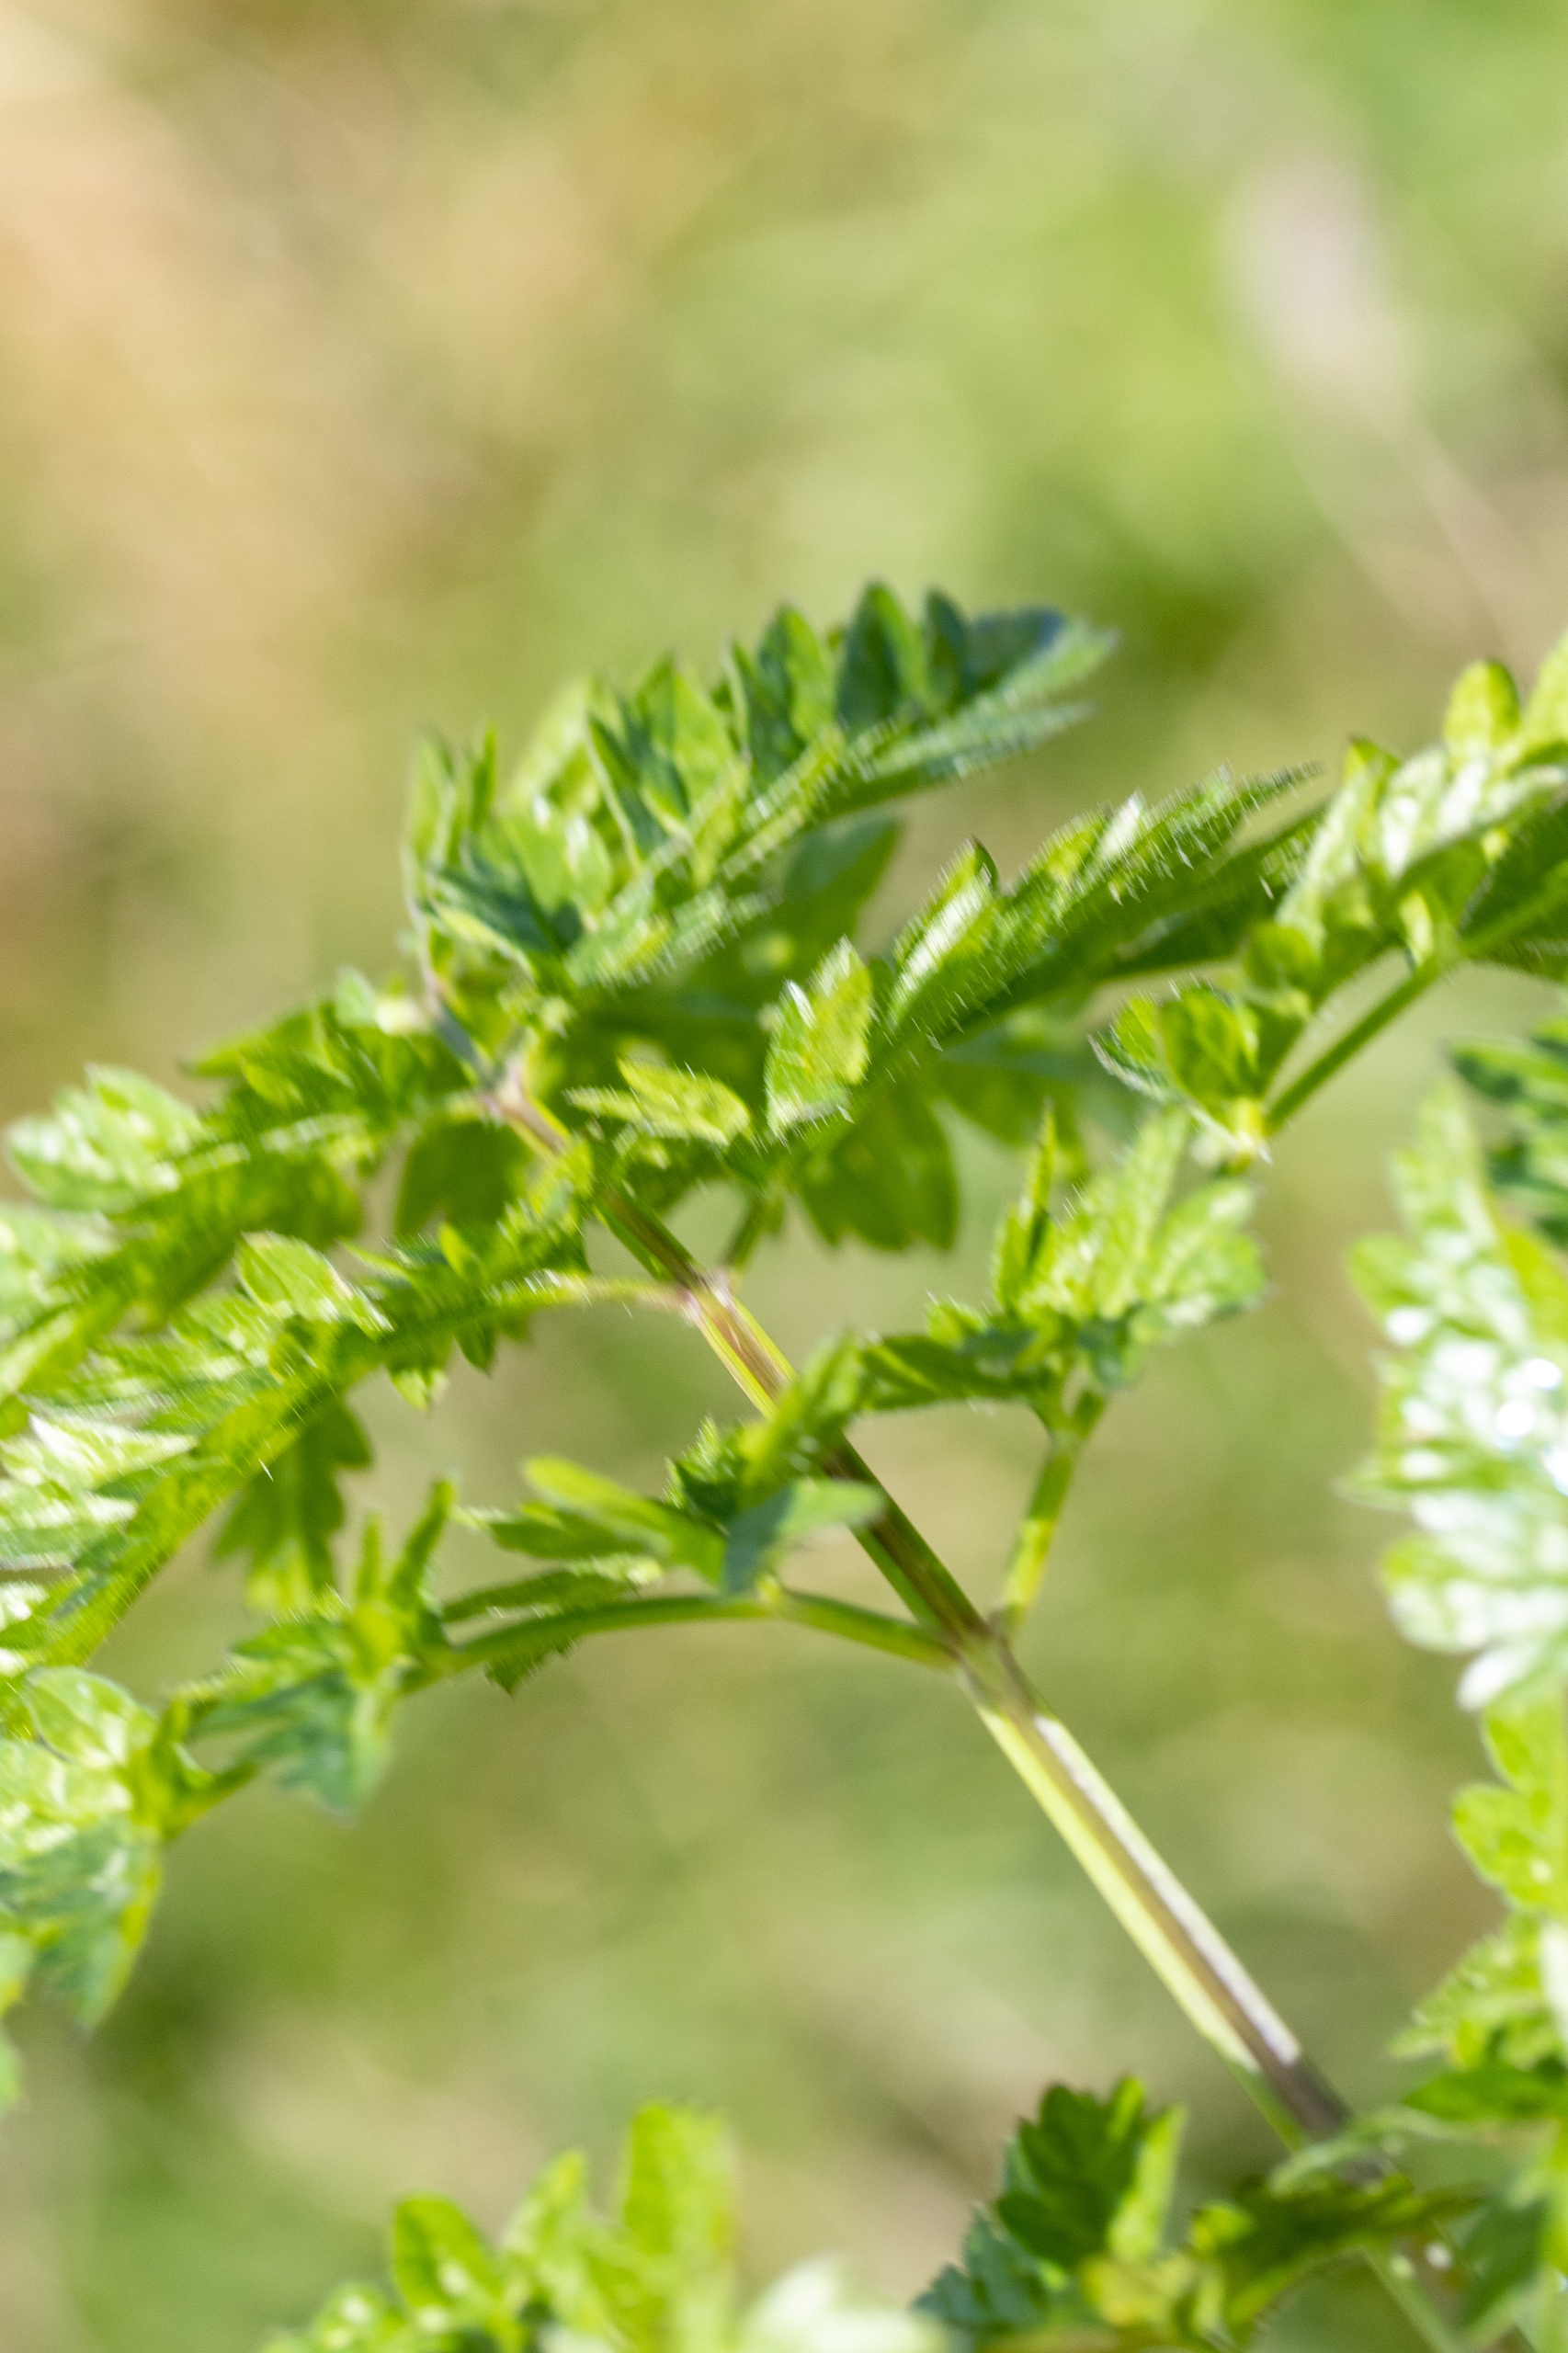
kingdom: Plantae
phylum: Tracheophyta
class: Magnoliopsida
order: Apiales
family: Apiaceae
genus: Anthriscus
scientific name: Anthriscus sylvestris
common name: Vild kørvel
